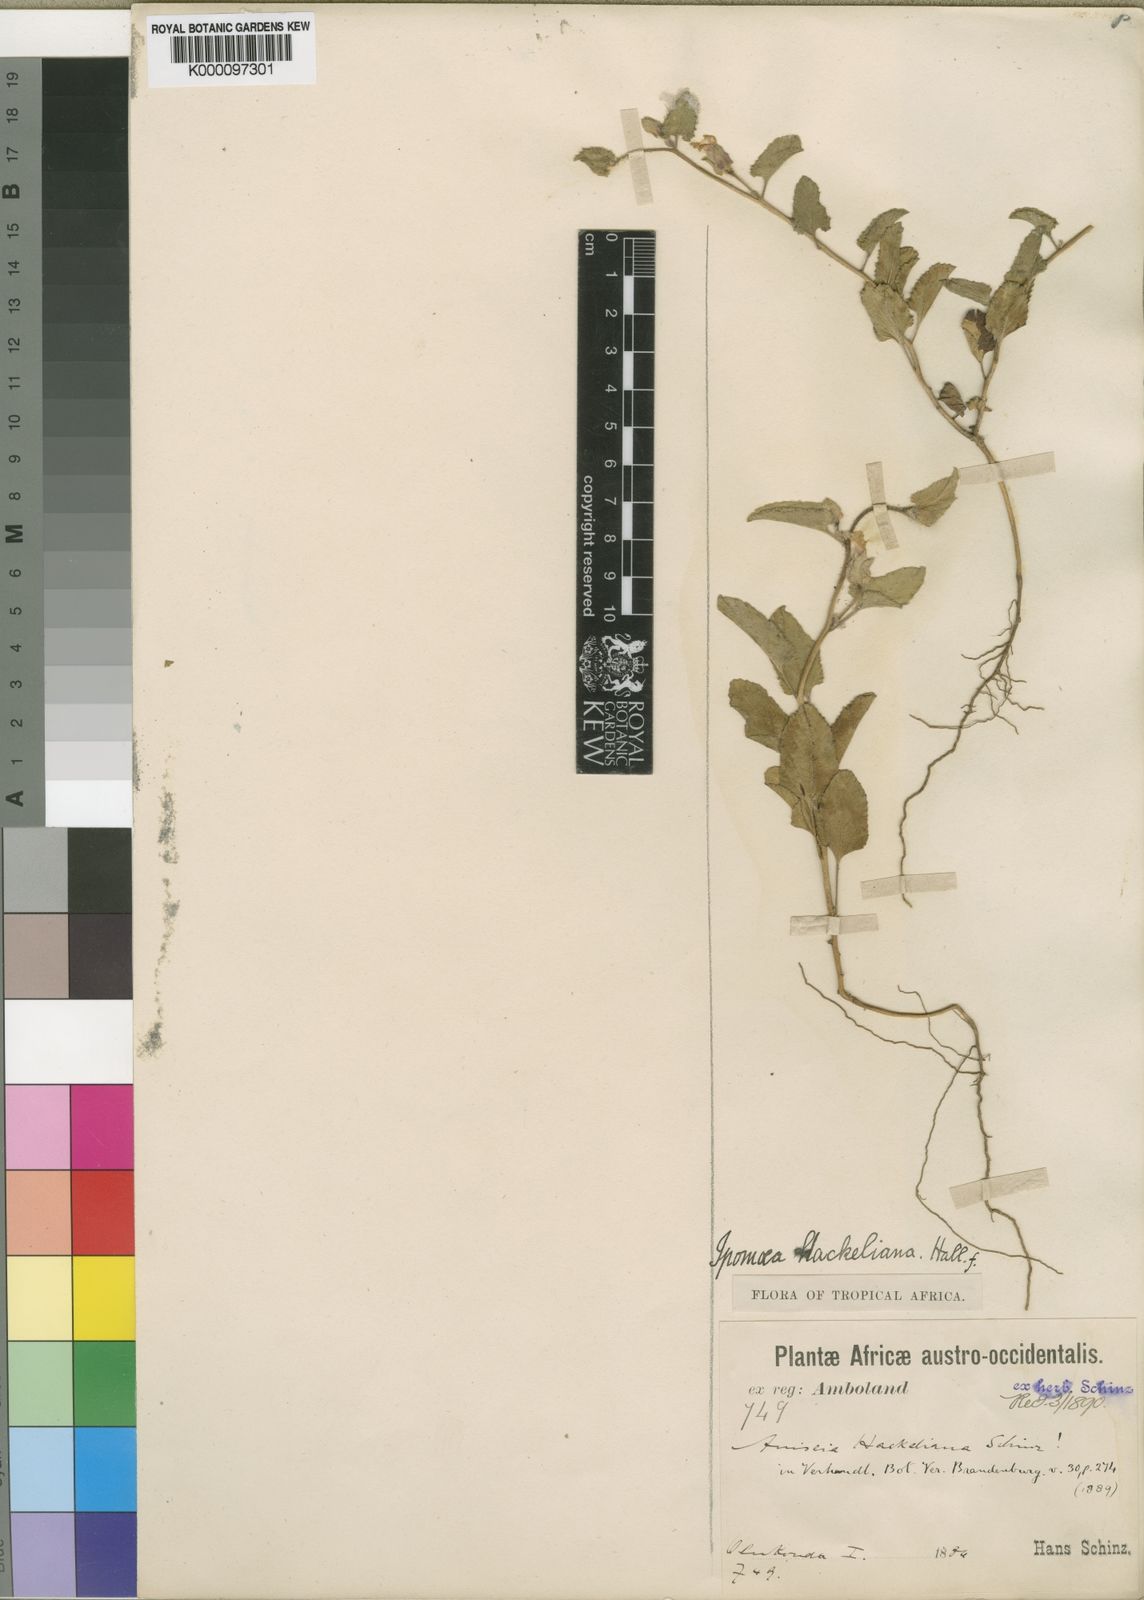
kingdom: Plantae
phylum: Tracheophyta
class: Magnoliopsida
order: Solanales
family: Convolvulaceae
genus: Ipomoea
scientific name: Ipomoea hackeliana
